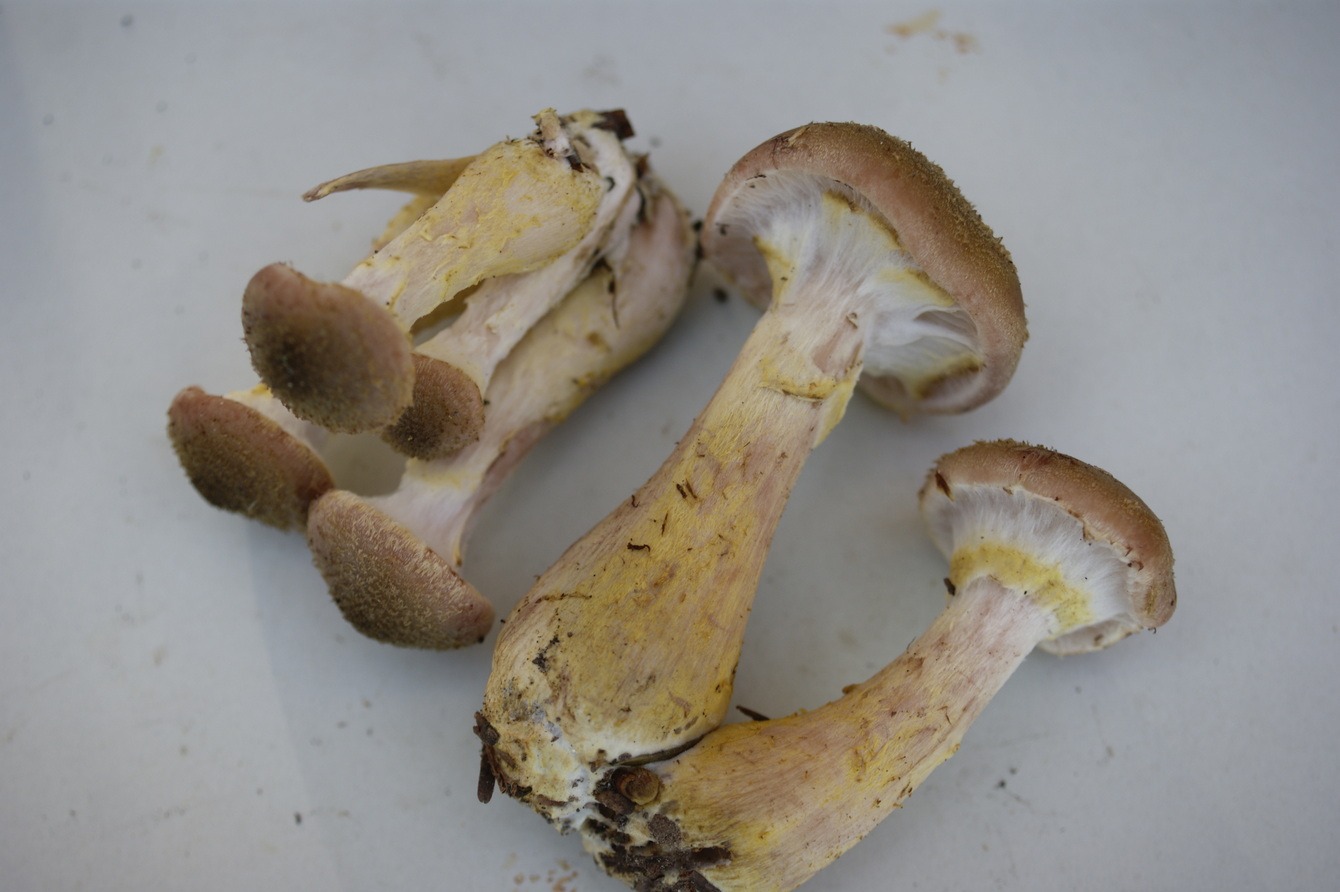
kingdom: Fungi
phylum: Basidiomycota
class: Agaricomycetes
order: Agaricales
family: Physalacriaceae
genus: Armillaria
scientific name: Armillaria lutea
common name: køllestokket honningsvamp
